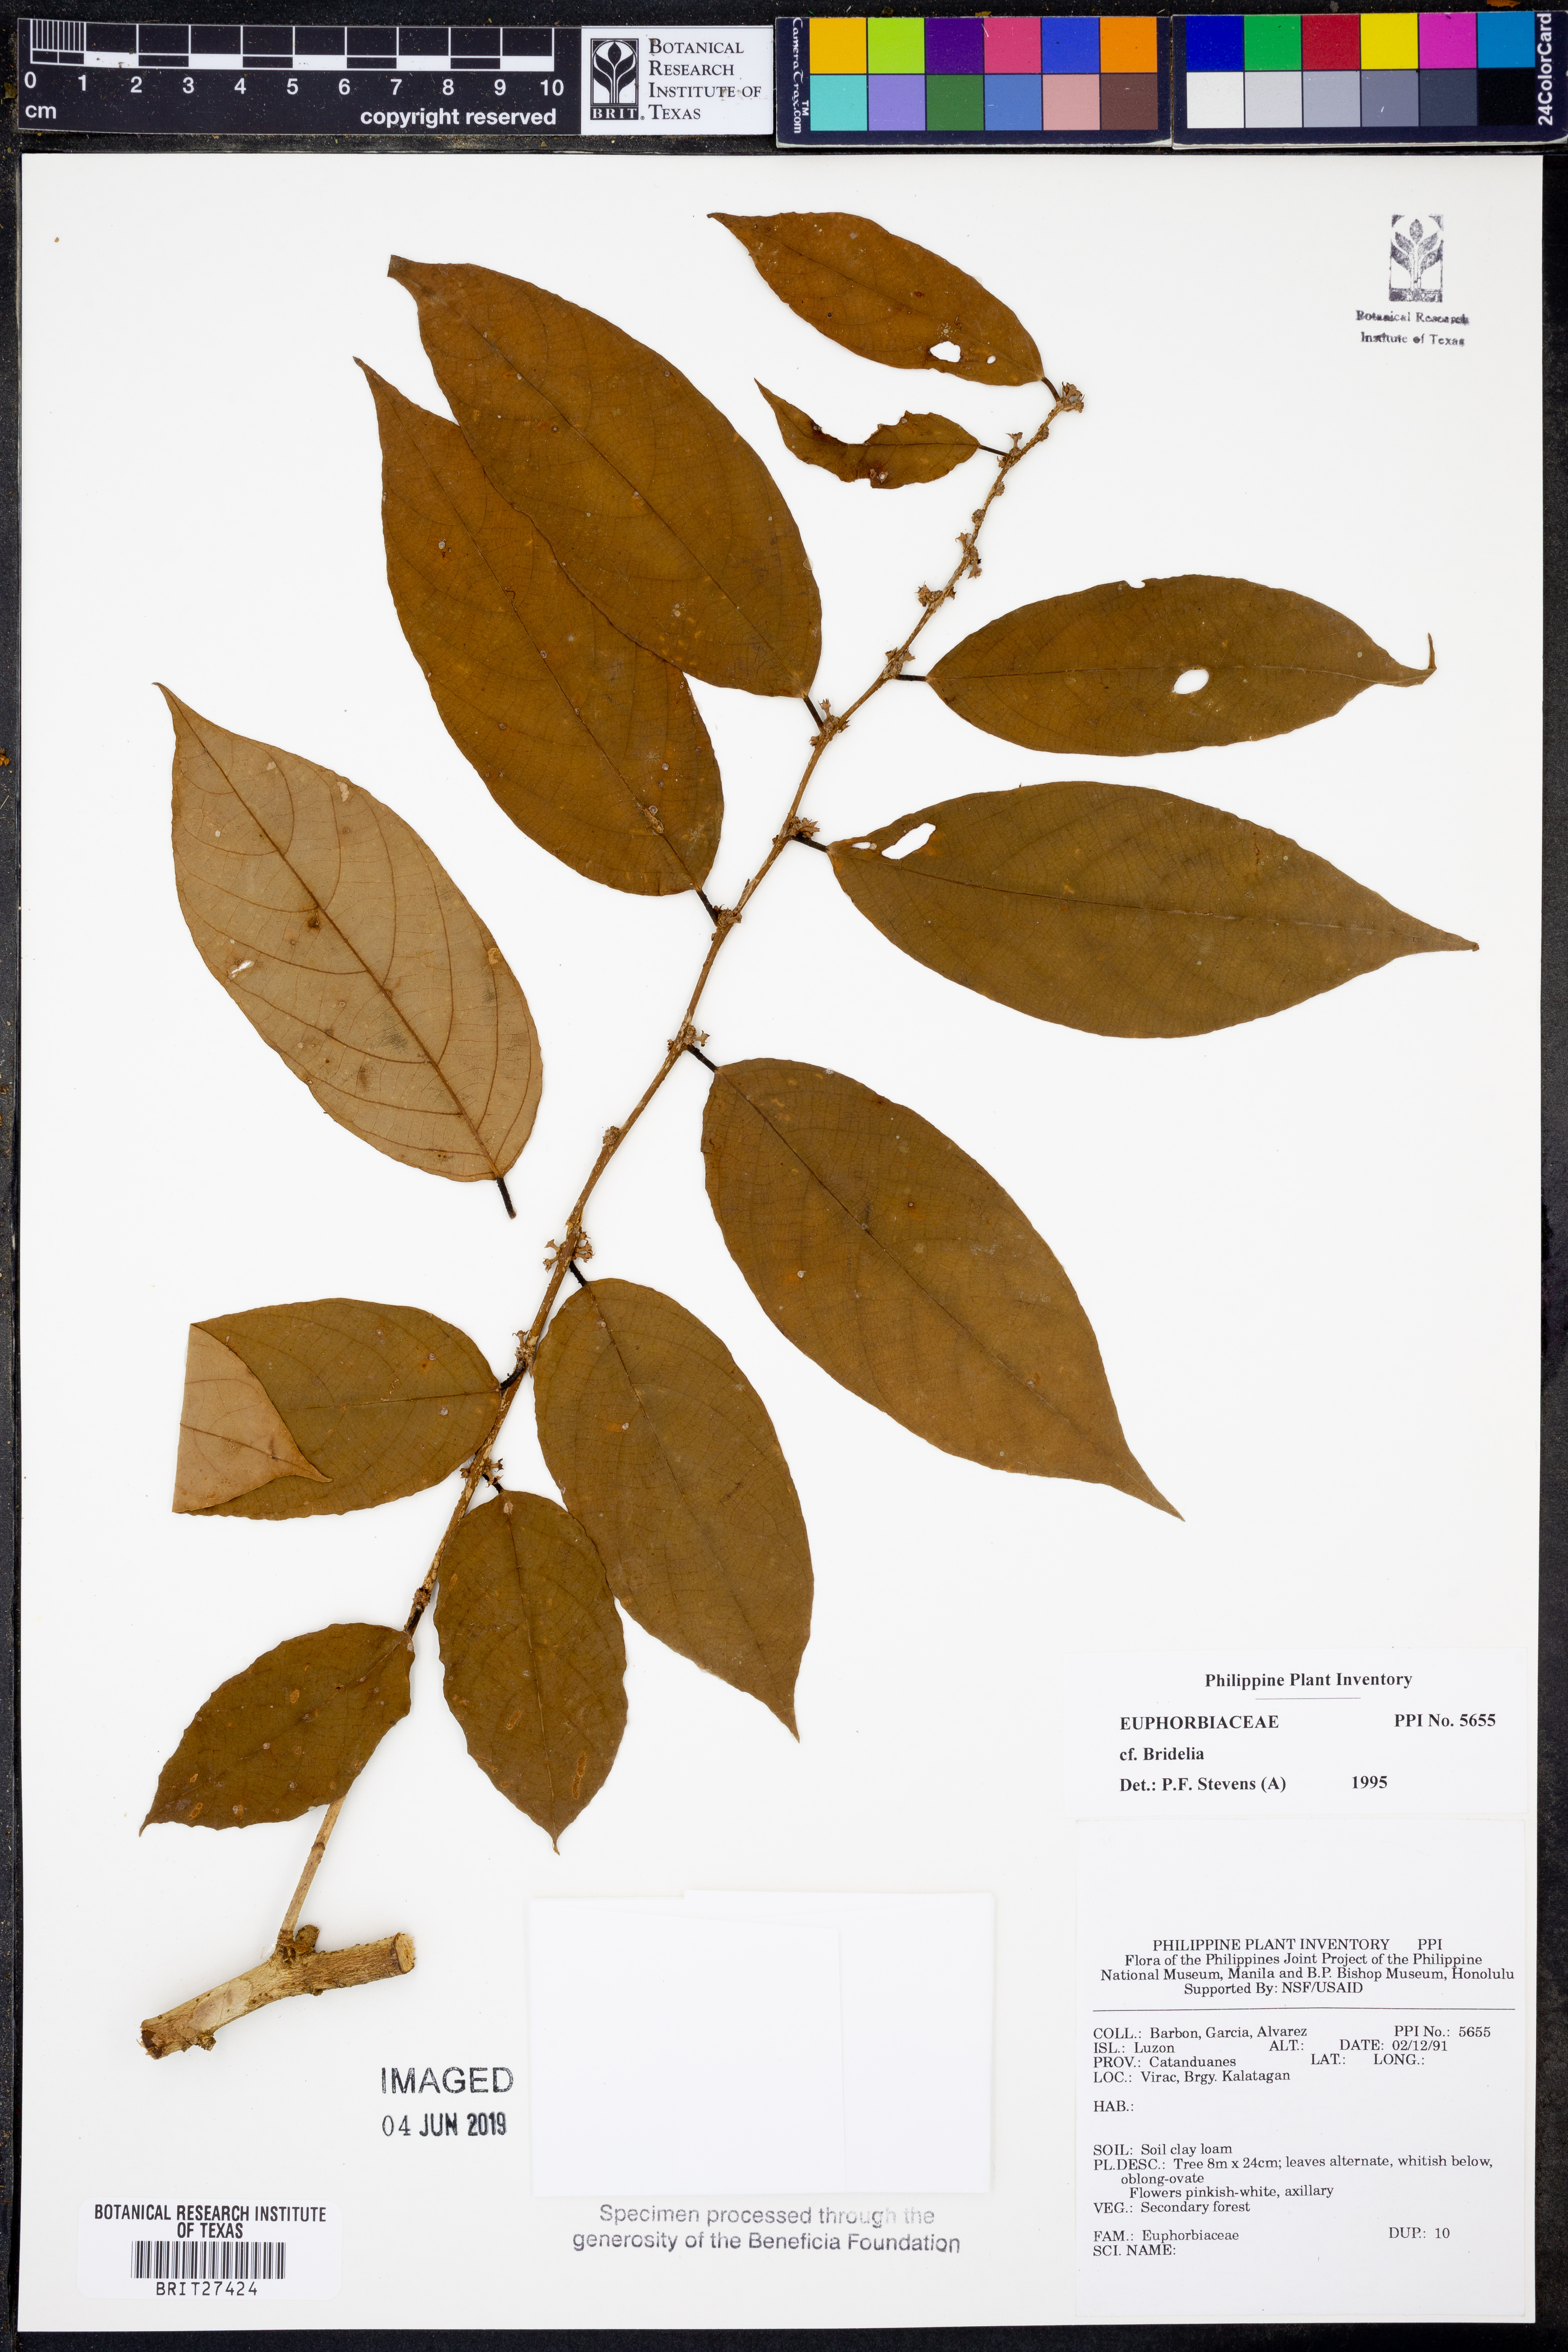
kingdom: Plantae
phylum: Tracheophyta
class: Magnoliopsida
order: Malpighiales
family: Euphorbiaceae
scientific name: Euphorbiaceae
